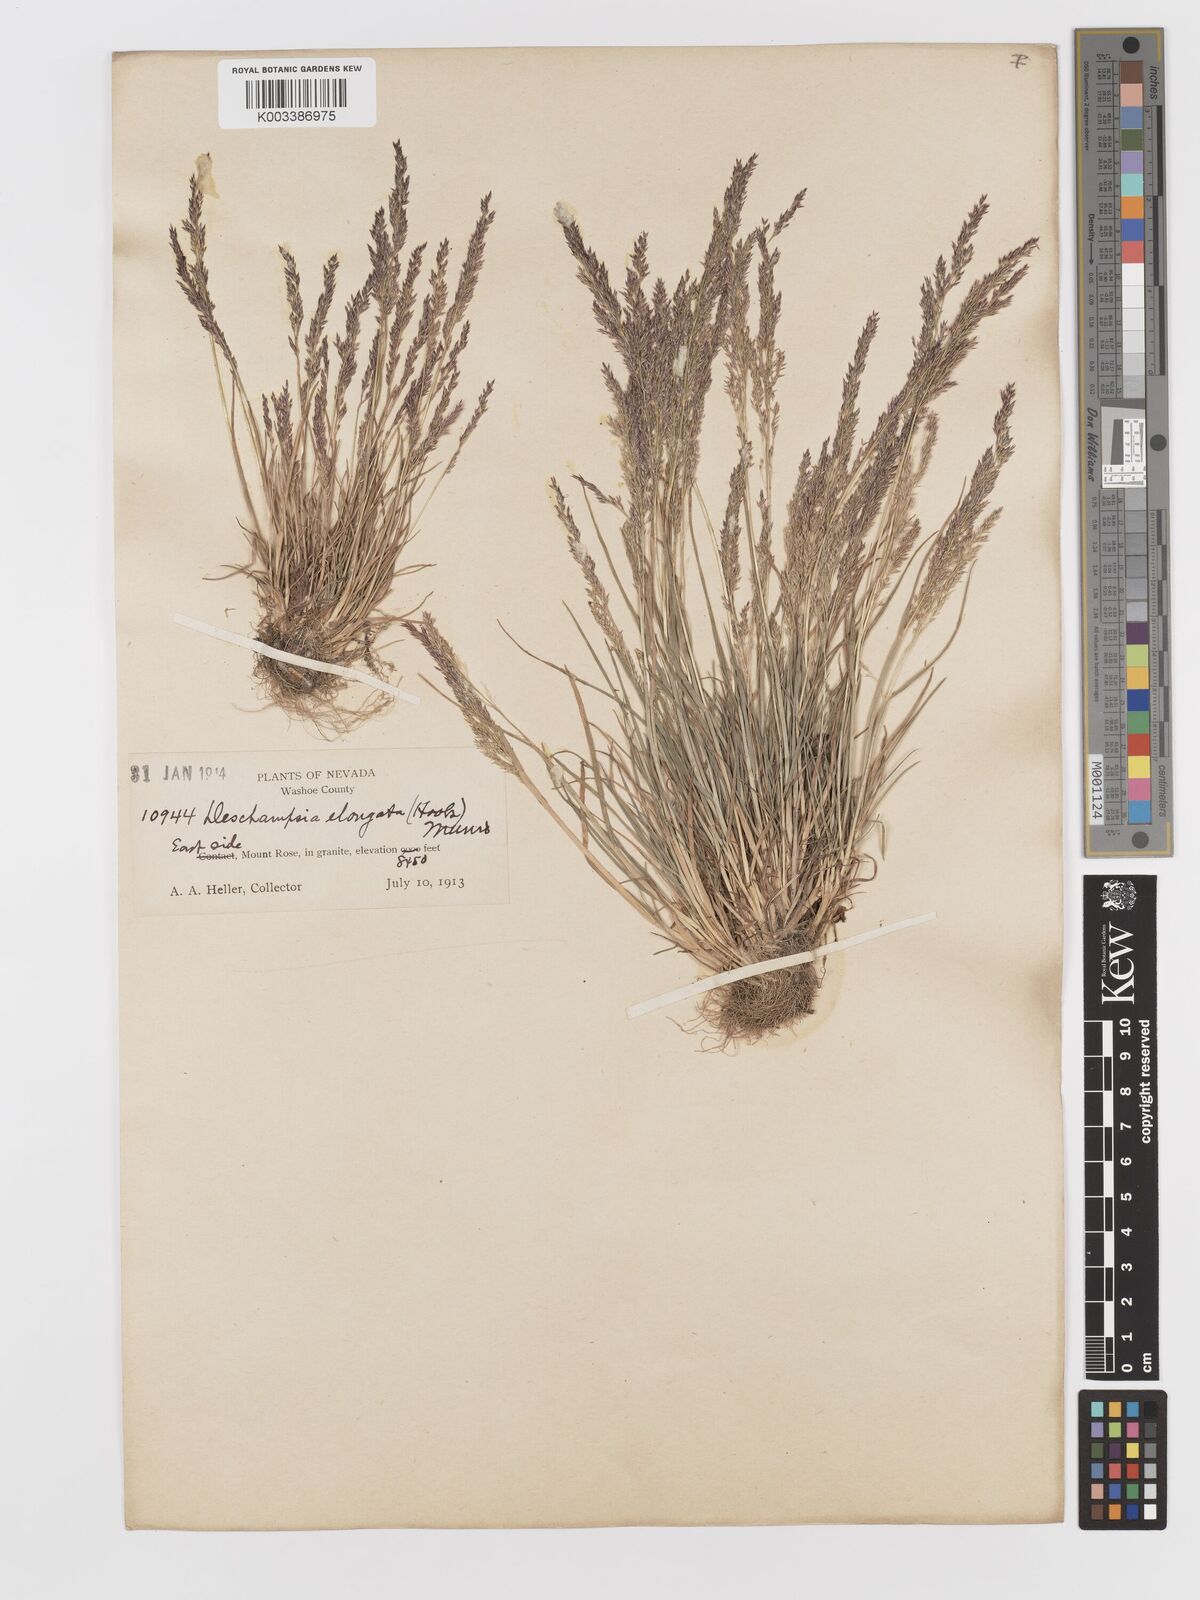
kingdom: Plantae
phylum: Tracheophyta
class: Liliopsida
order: Poales
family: Poaceae
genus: Deschampsia
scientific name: Deschampsia elongata
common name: Slender hairgrass
